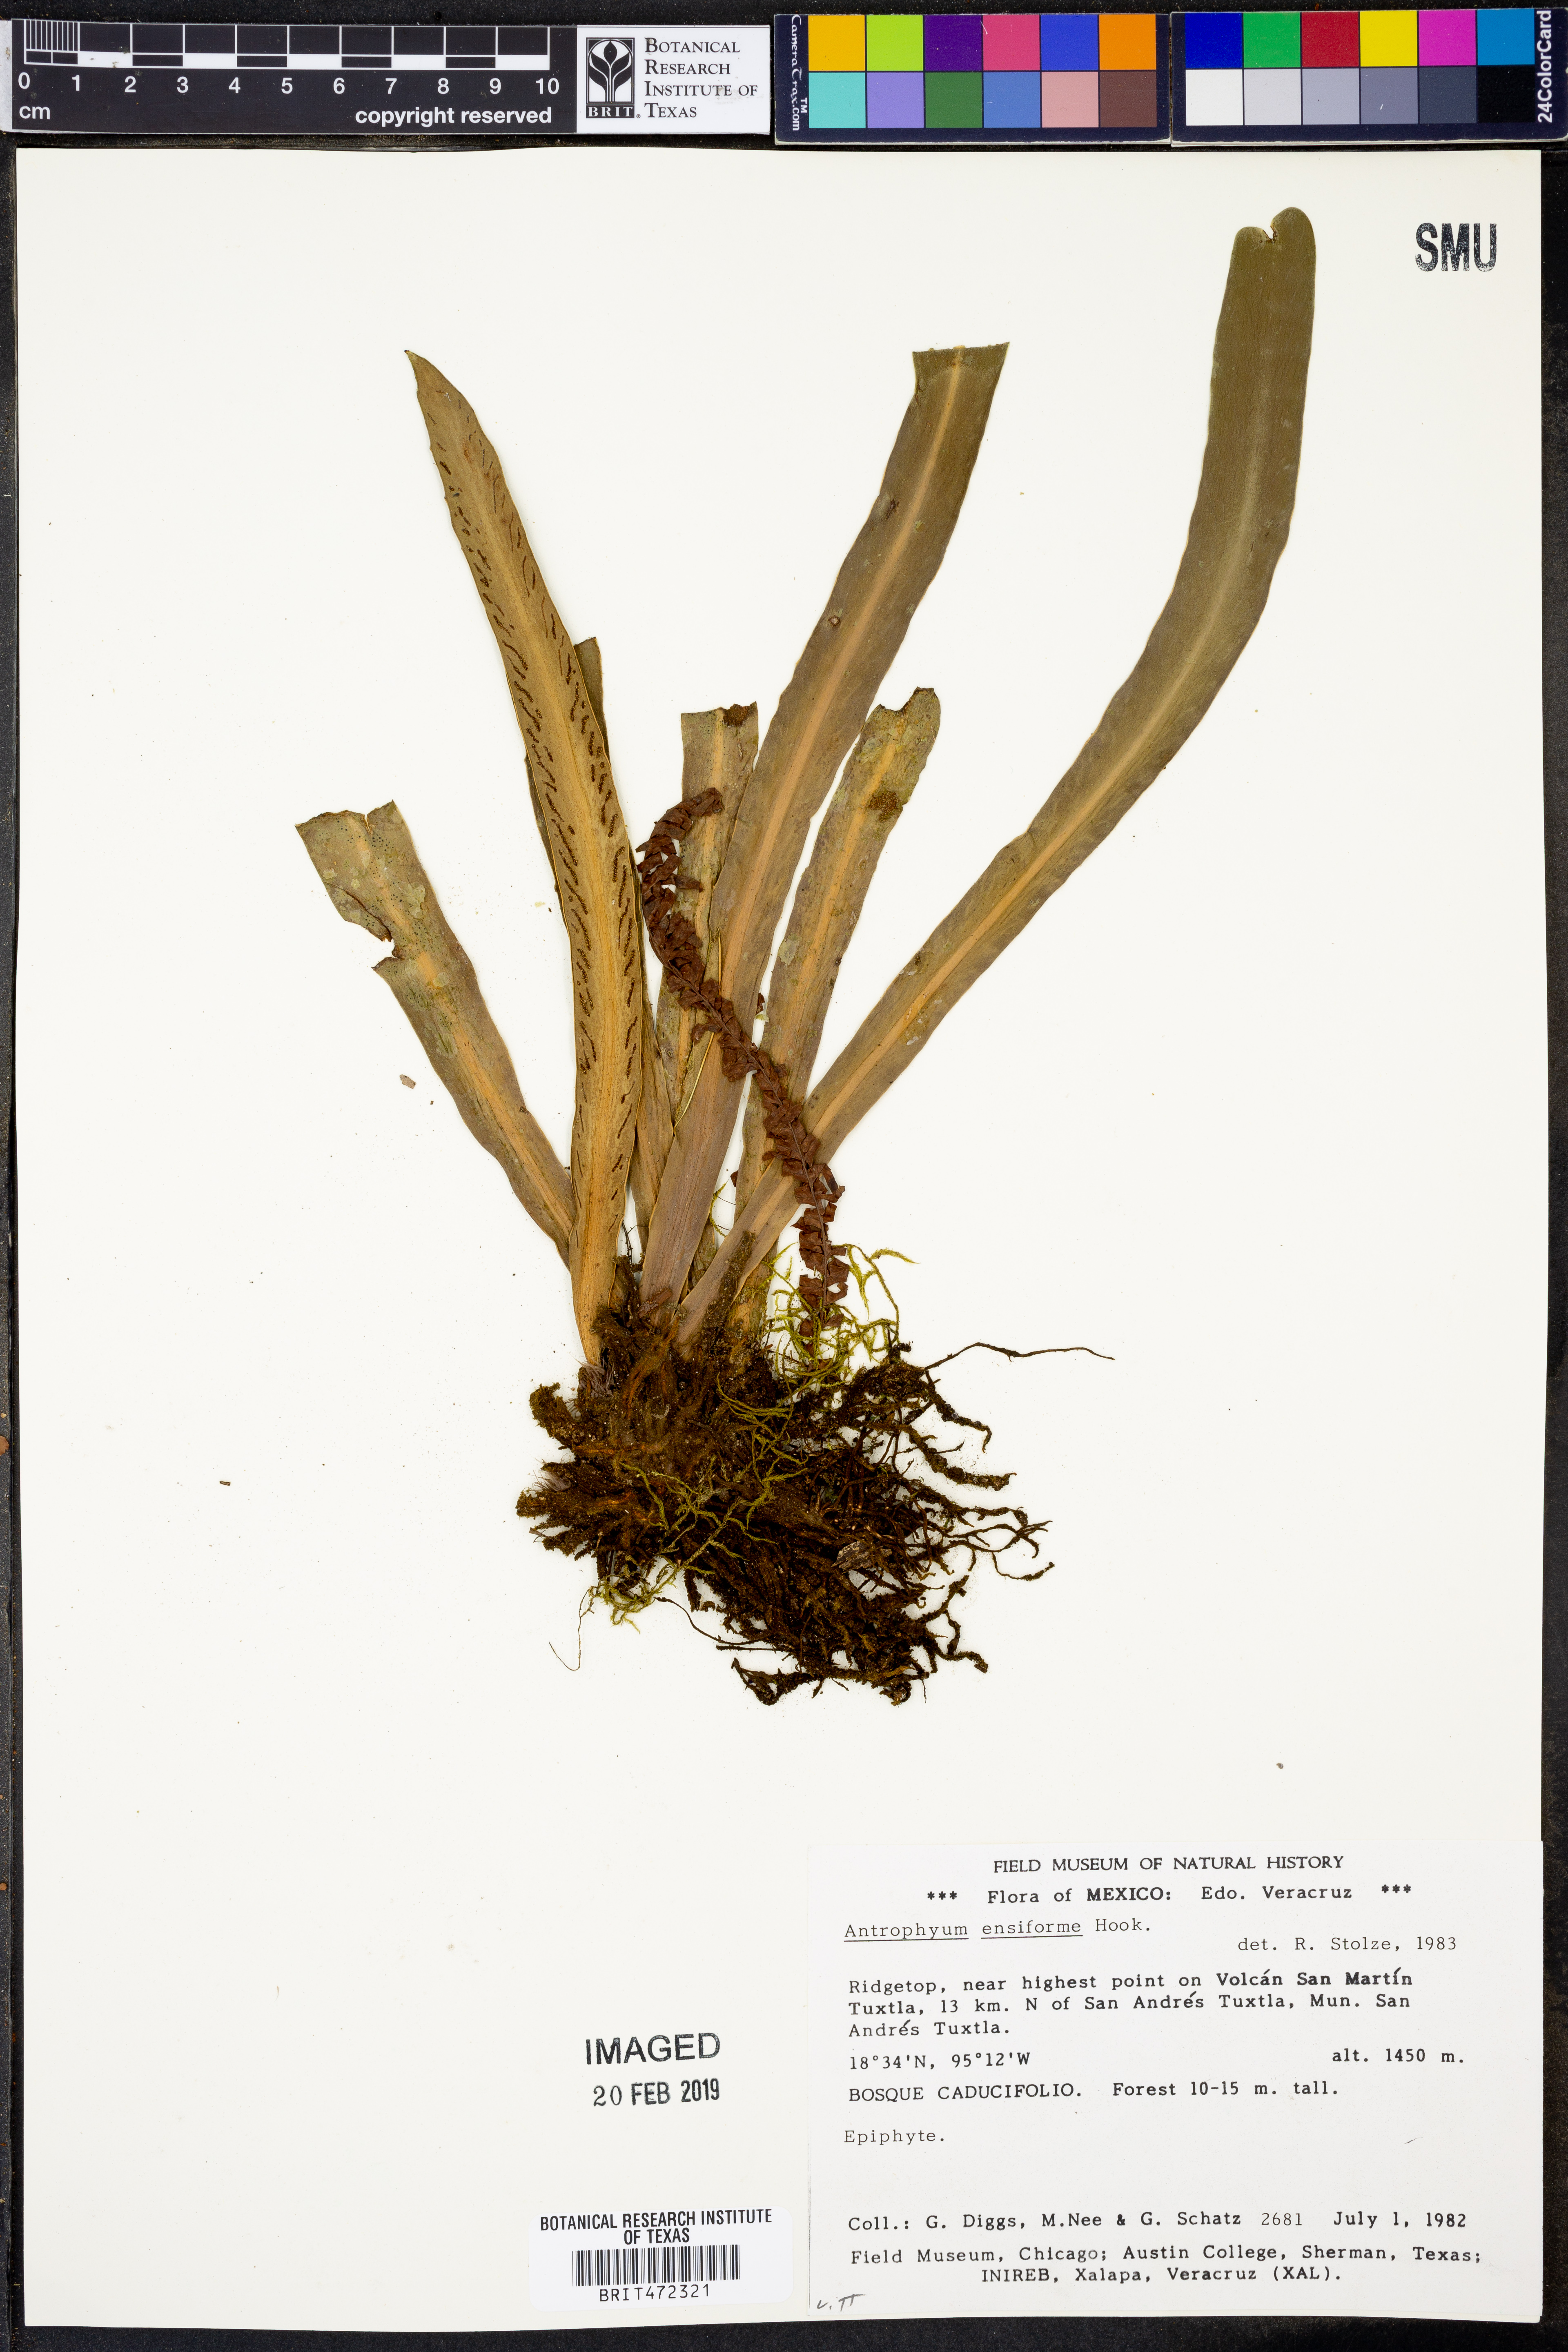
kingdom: Plantae
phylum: Tracheophyta
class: Polypodiopsida
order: Polypodiales
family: Pteridaceae
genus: Scoliosorus
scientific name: Scoliosorus ensiformis
